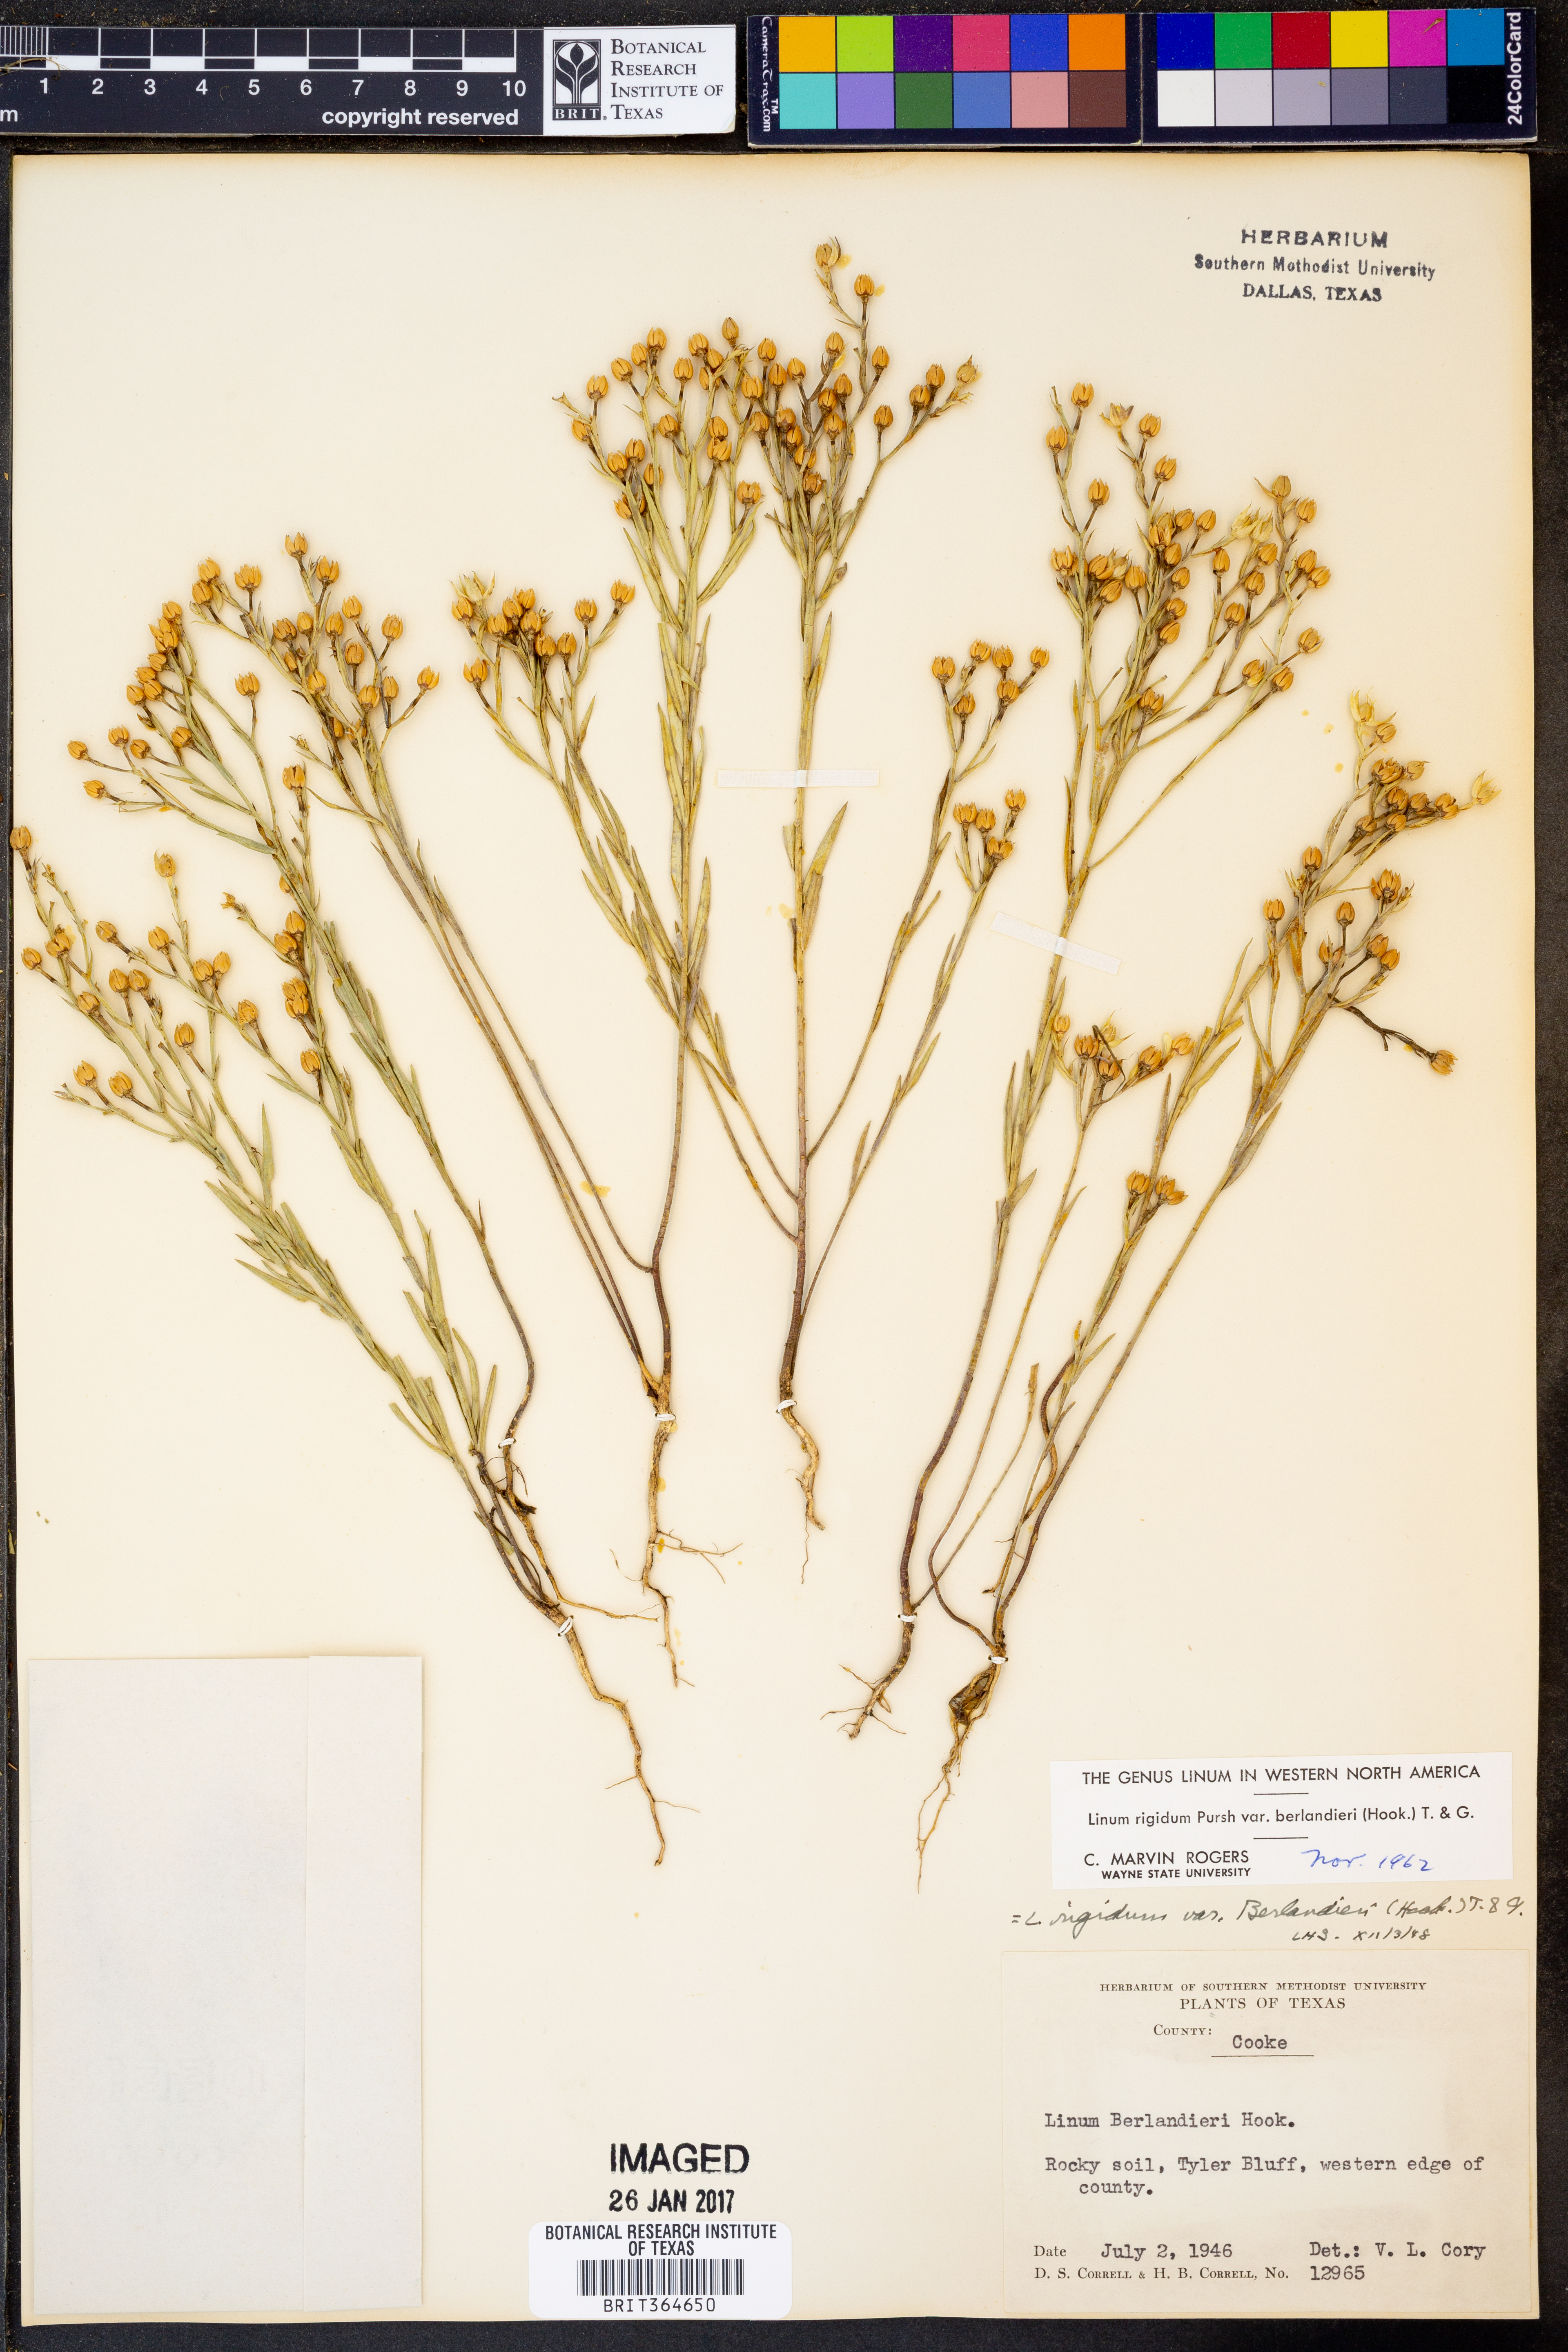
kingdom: Plantae
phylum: Tracheophyta
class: Magnoliopsida
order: Malpighiales
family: Linaceae
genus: Linum
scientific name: Linum berlandieri
